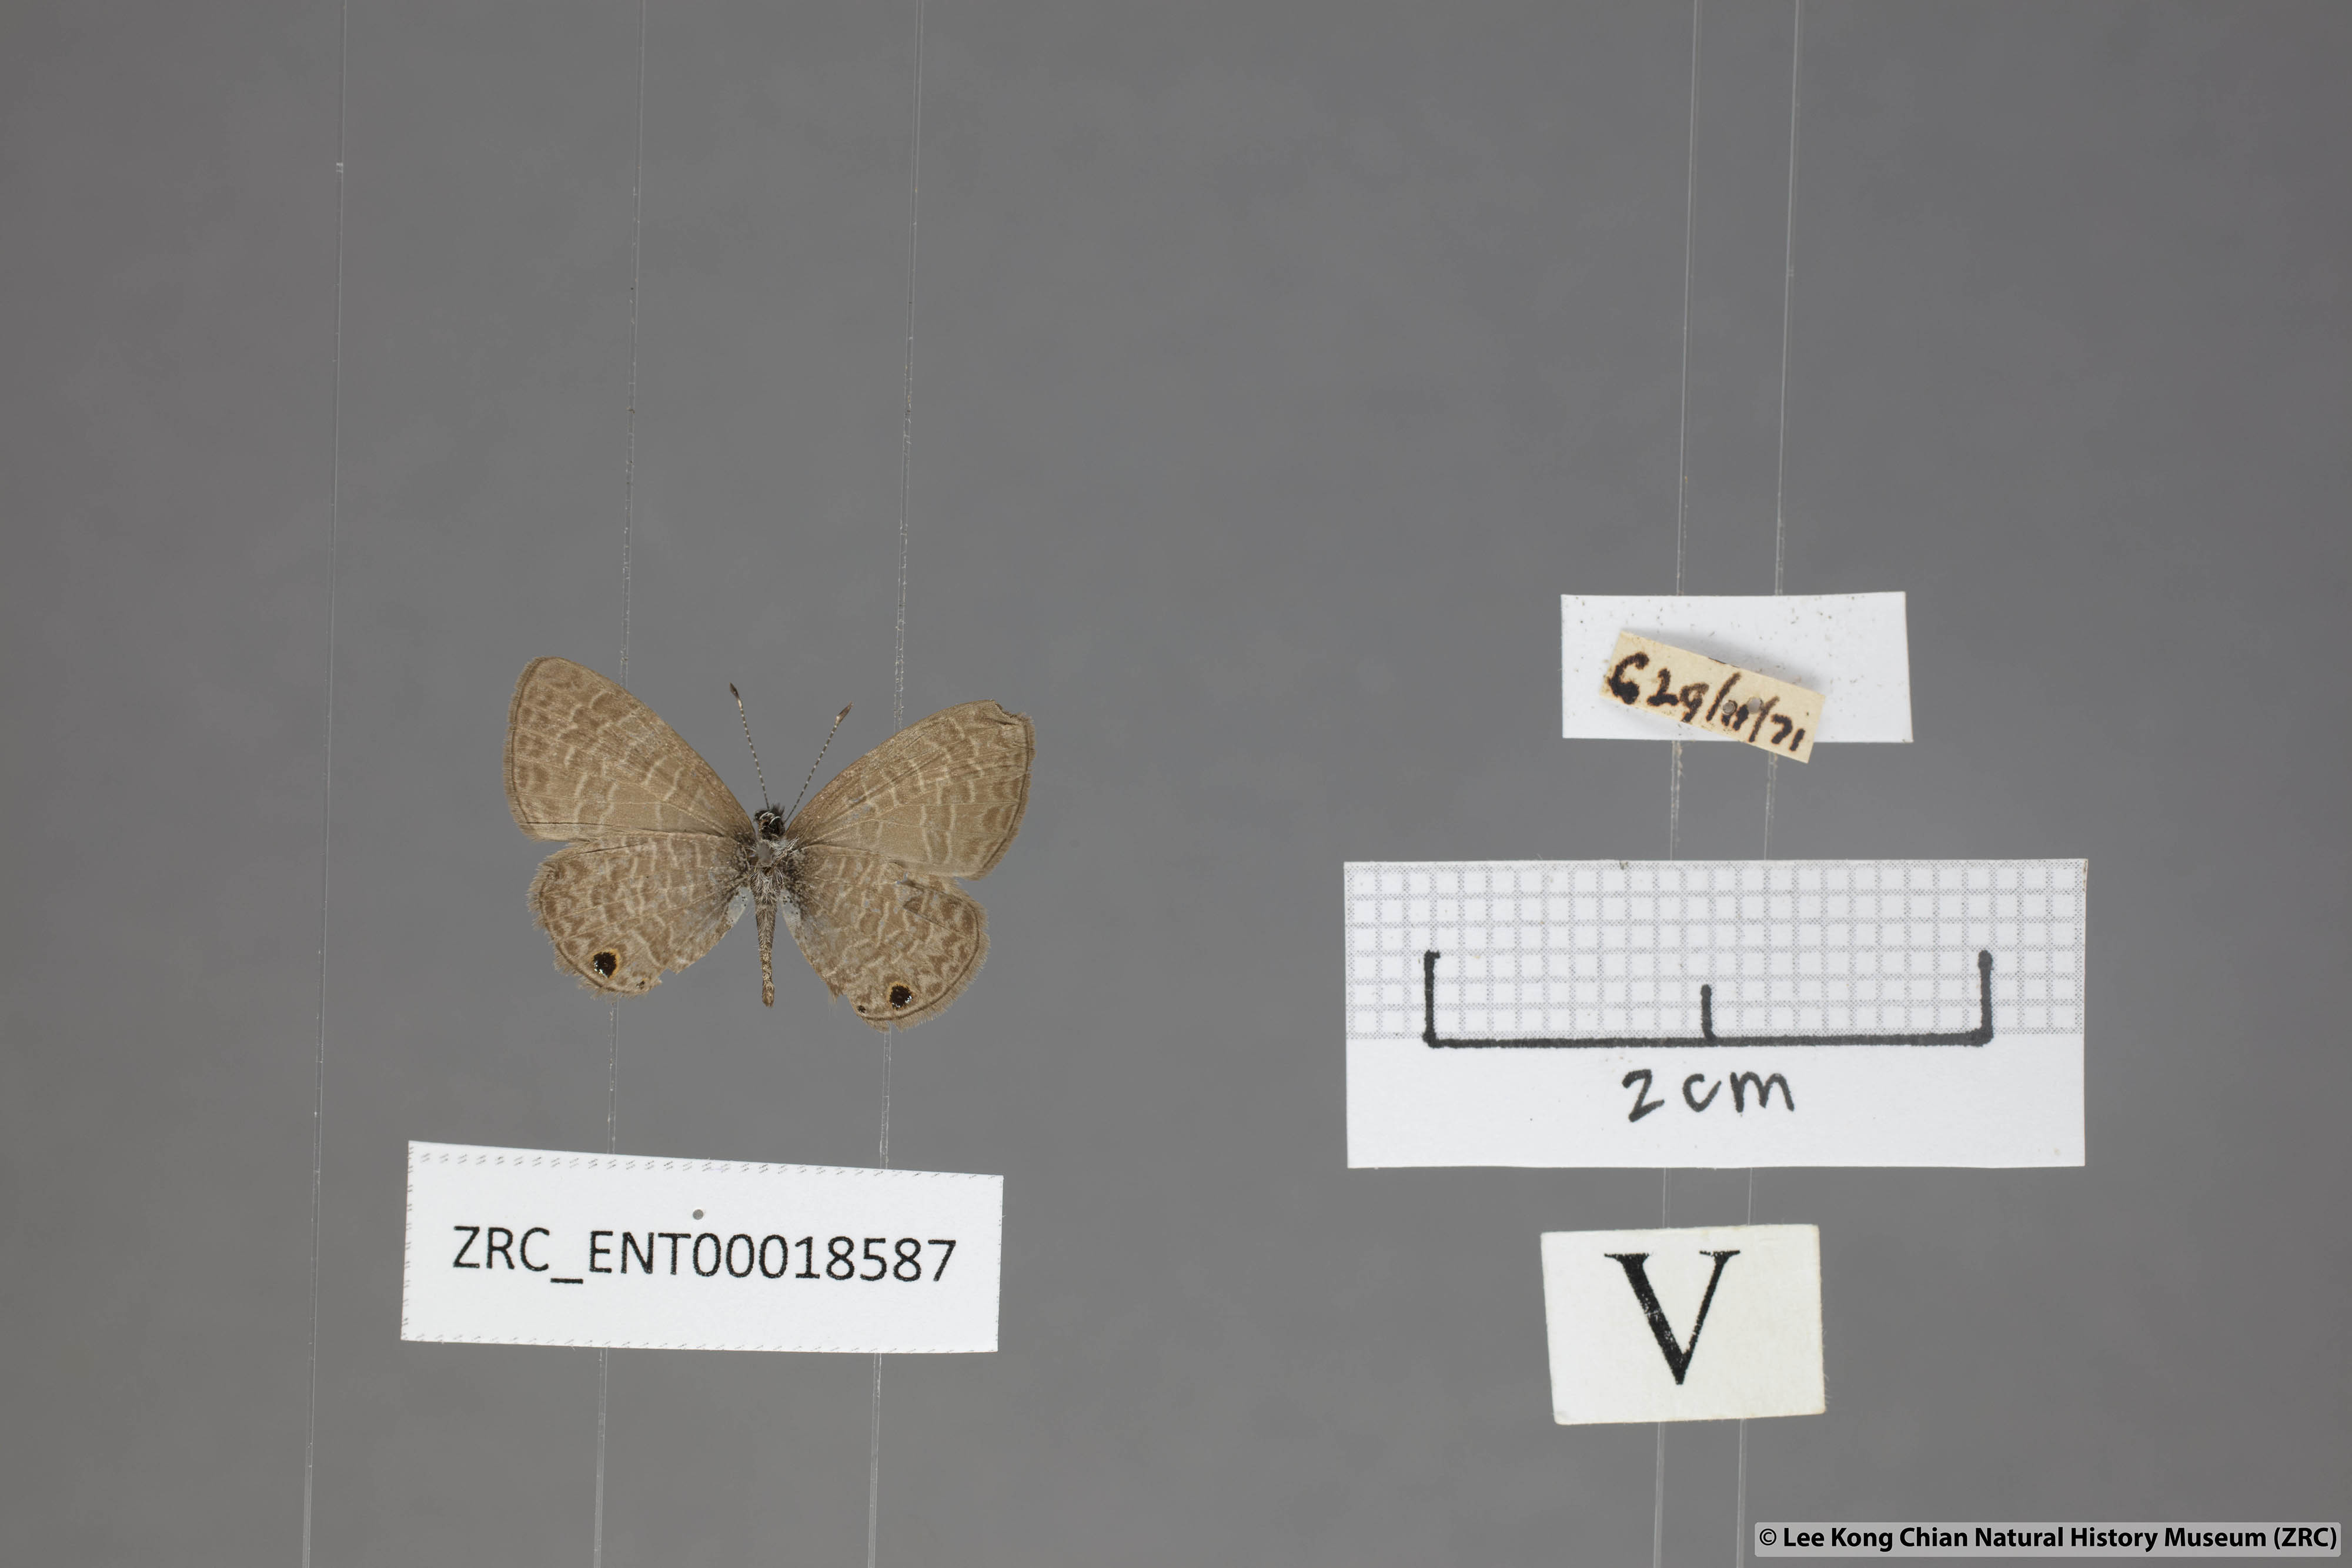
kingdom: Animalia
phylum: Arthropoda
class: Insecta
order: Lepidoptera
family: Lycaenidae
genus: Prosotas
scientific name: Prosotas dubiosa
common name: Tailless lineblue
